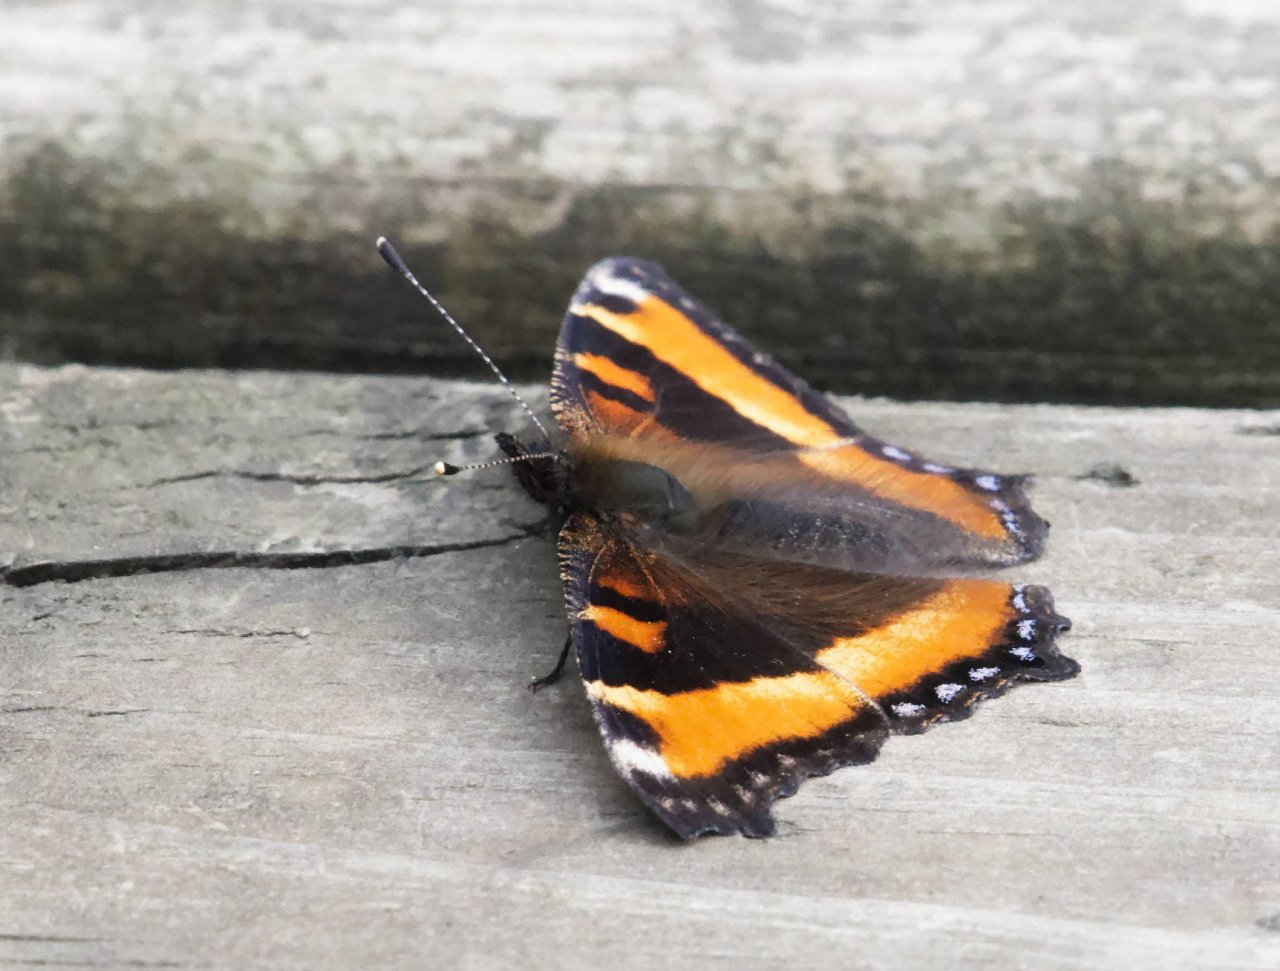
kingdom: Animalia
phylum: Arthropoda
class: Insecta
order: Lepidoptera
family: Nymphalidae
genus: Aglais
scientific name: Aglais milberti
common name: Milbert's Tortoiseshell
